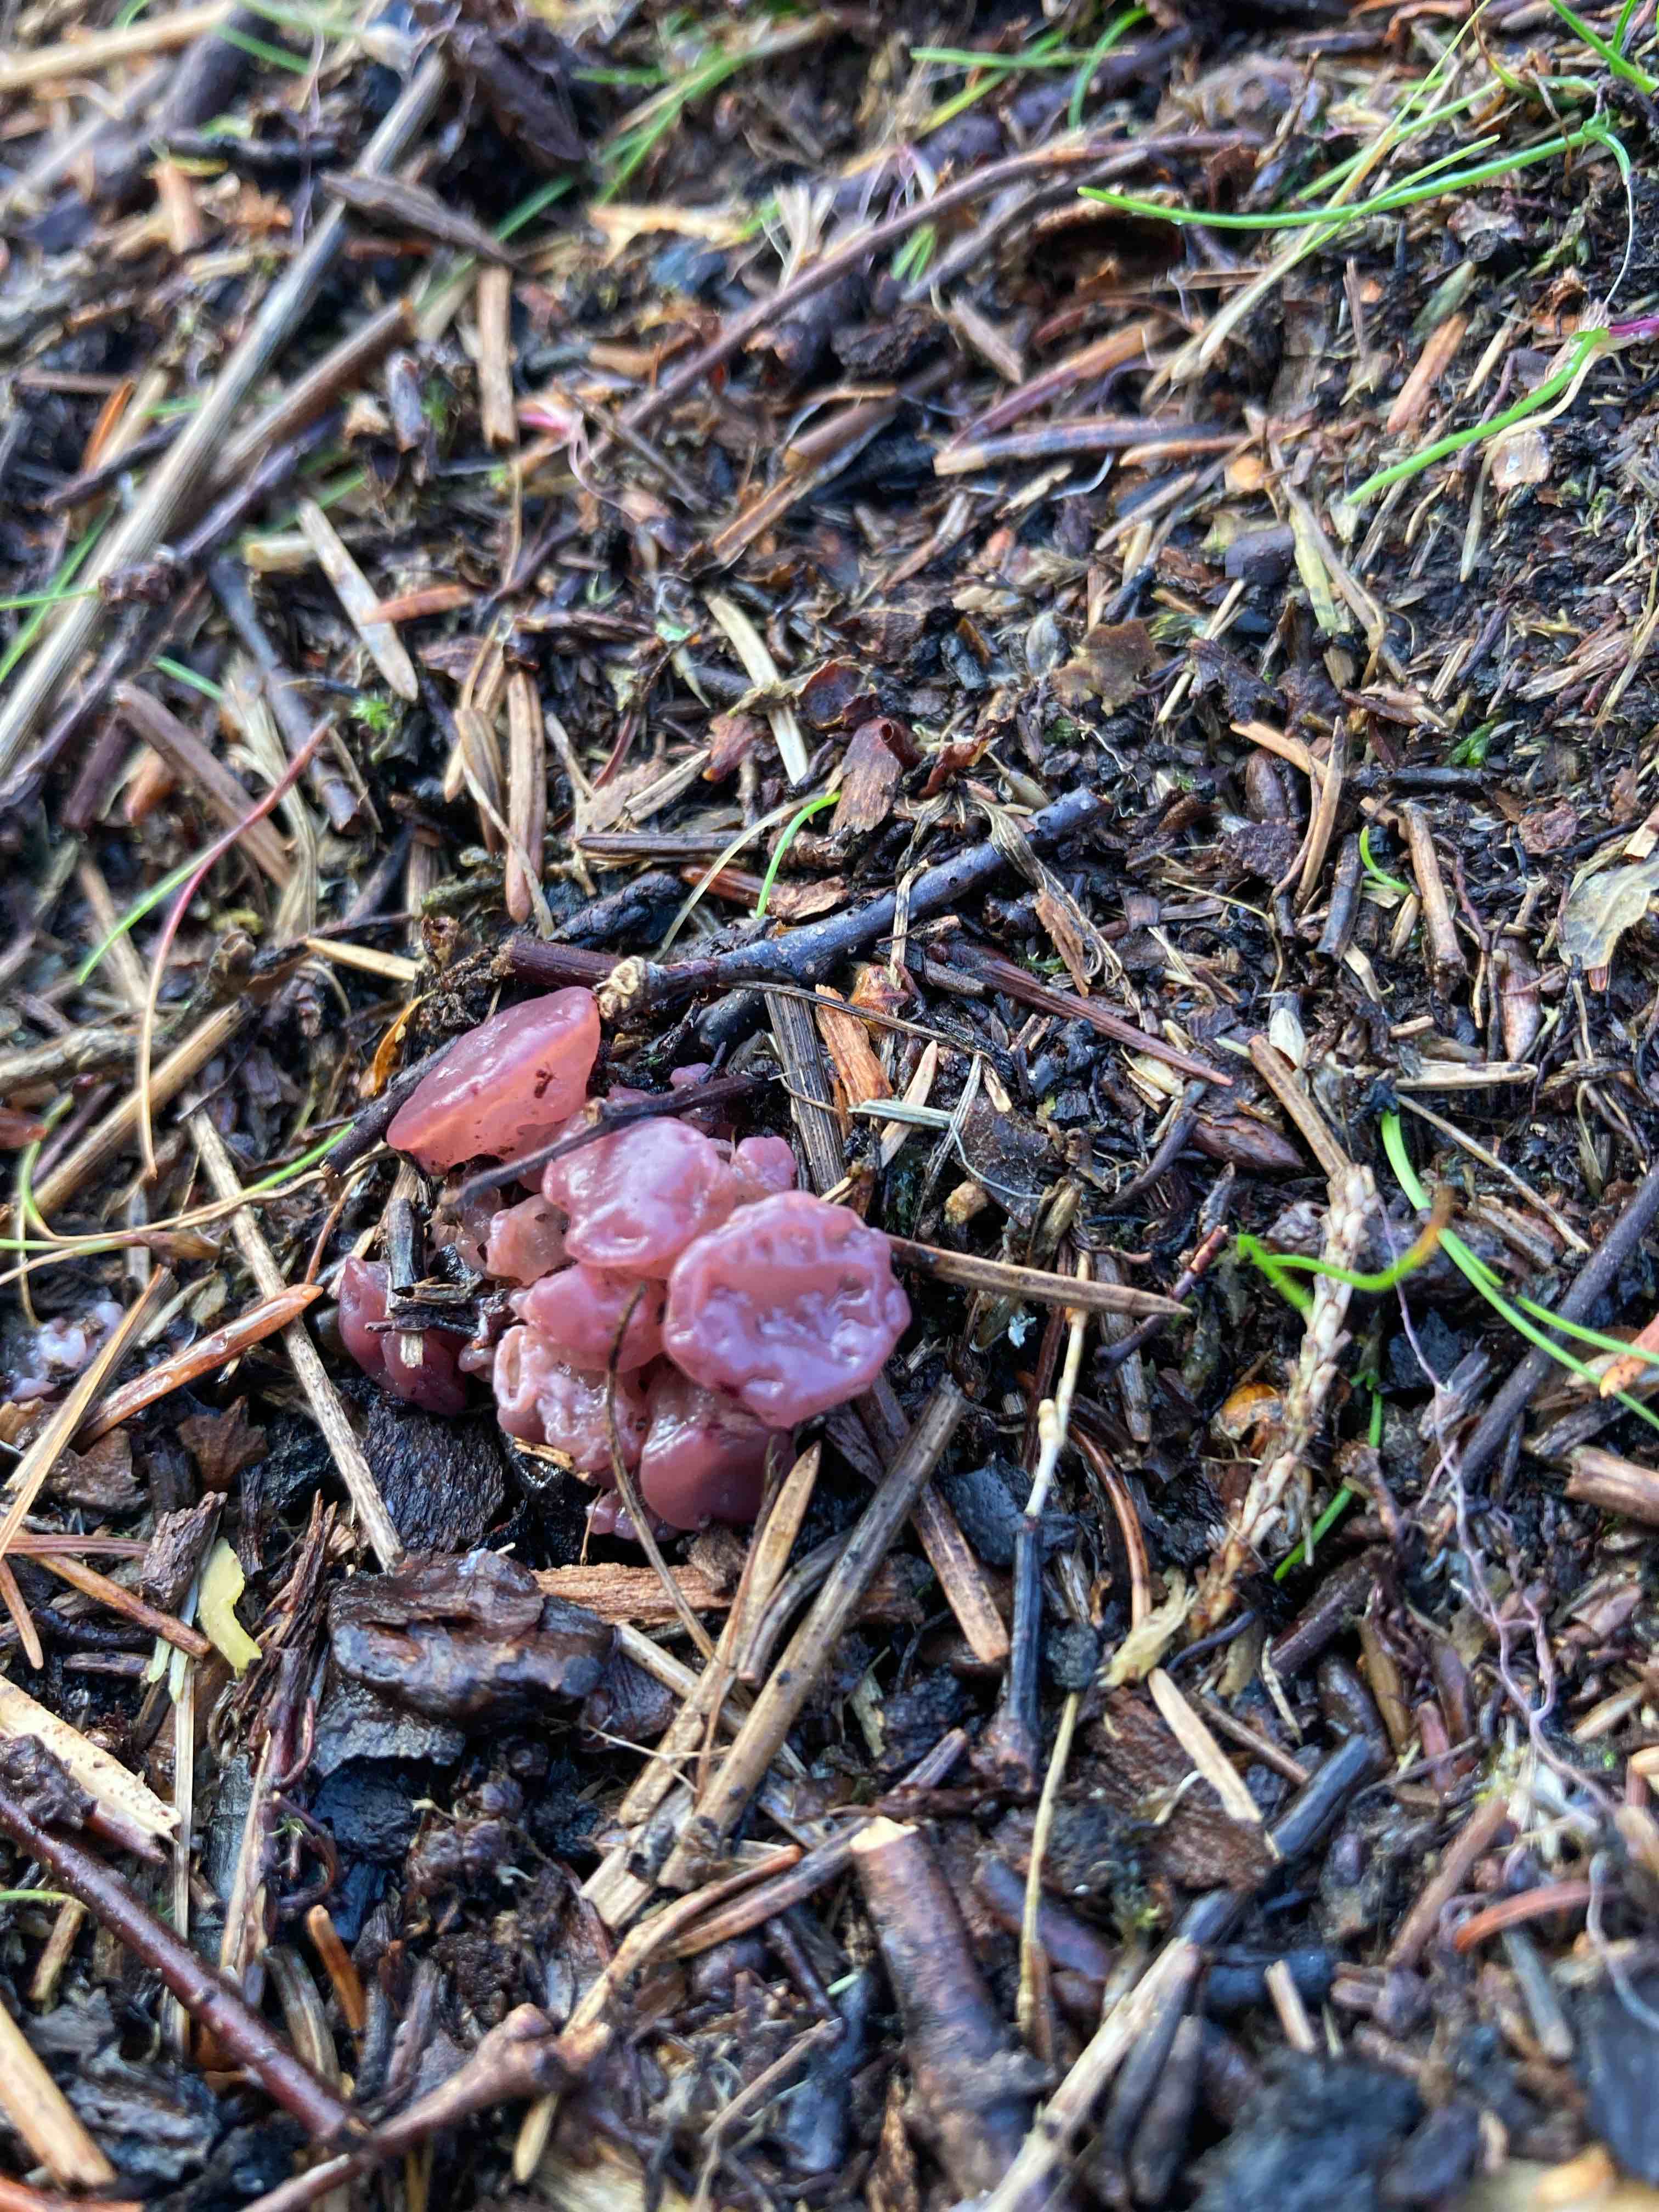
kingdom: Fungi
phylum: Ascomycota
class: Leotiomycetes
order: Helotiales
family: Gelatinodiscaceae
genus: Ascocoryne
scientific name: Ascocoryne sarcoides
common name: rødlilla sejskive
